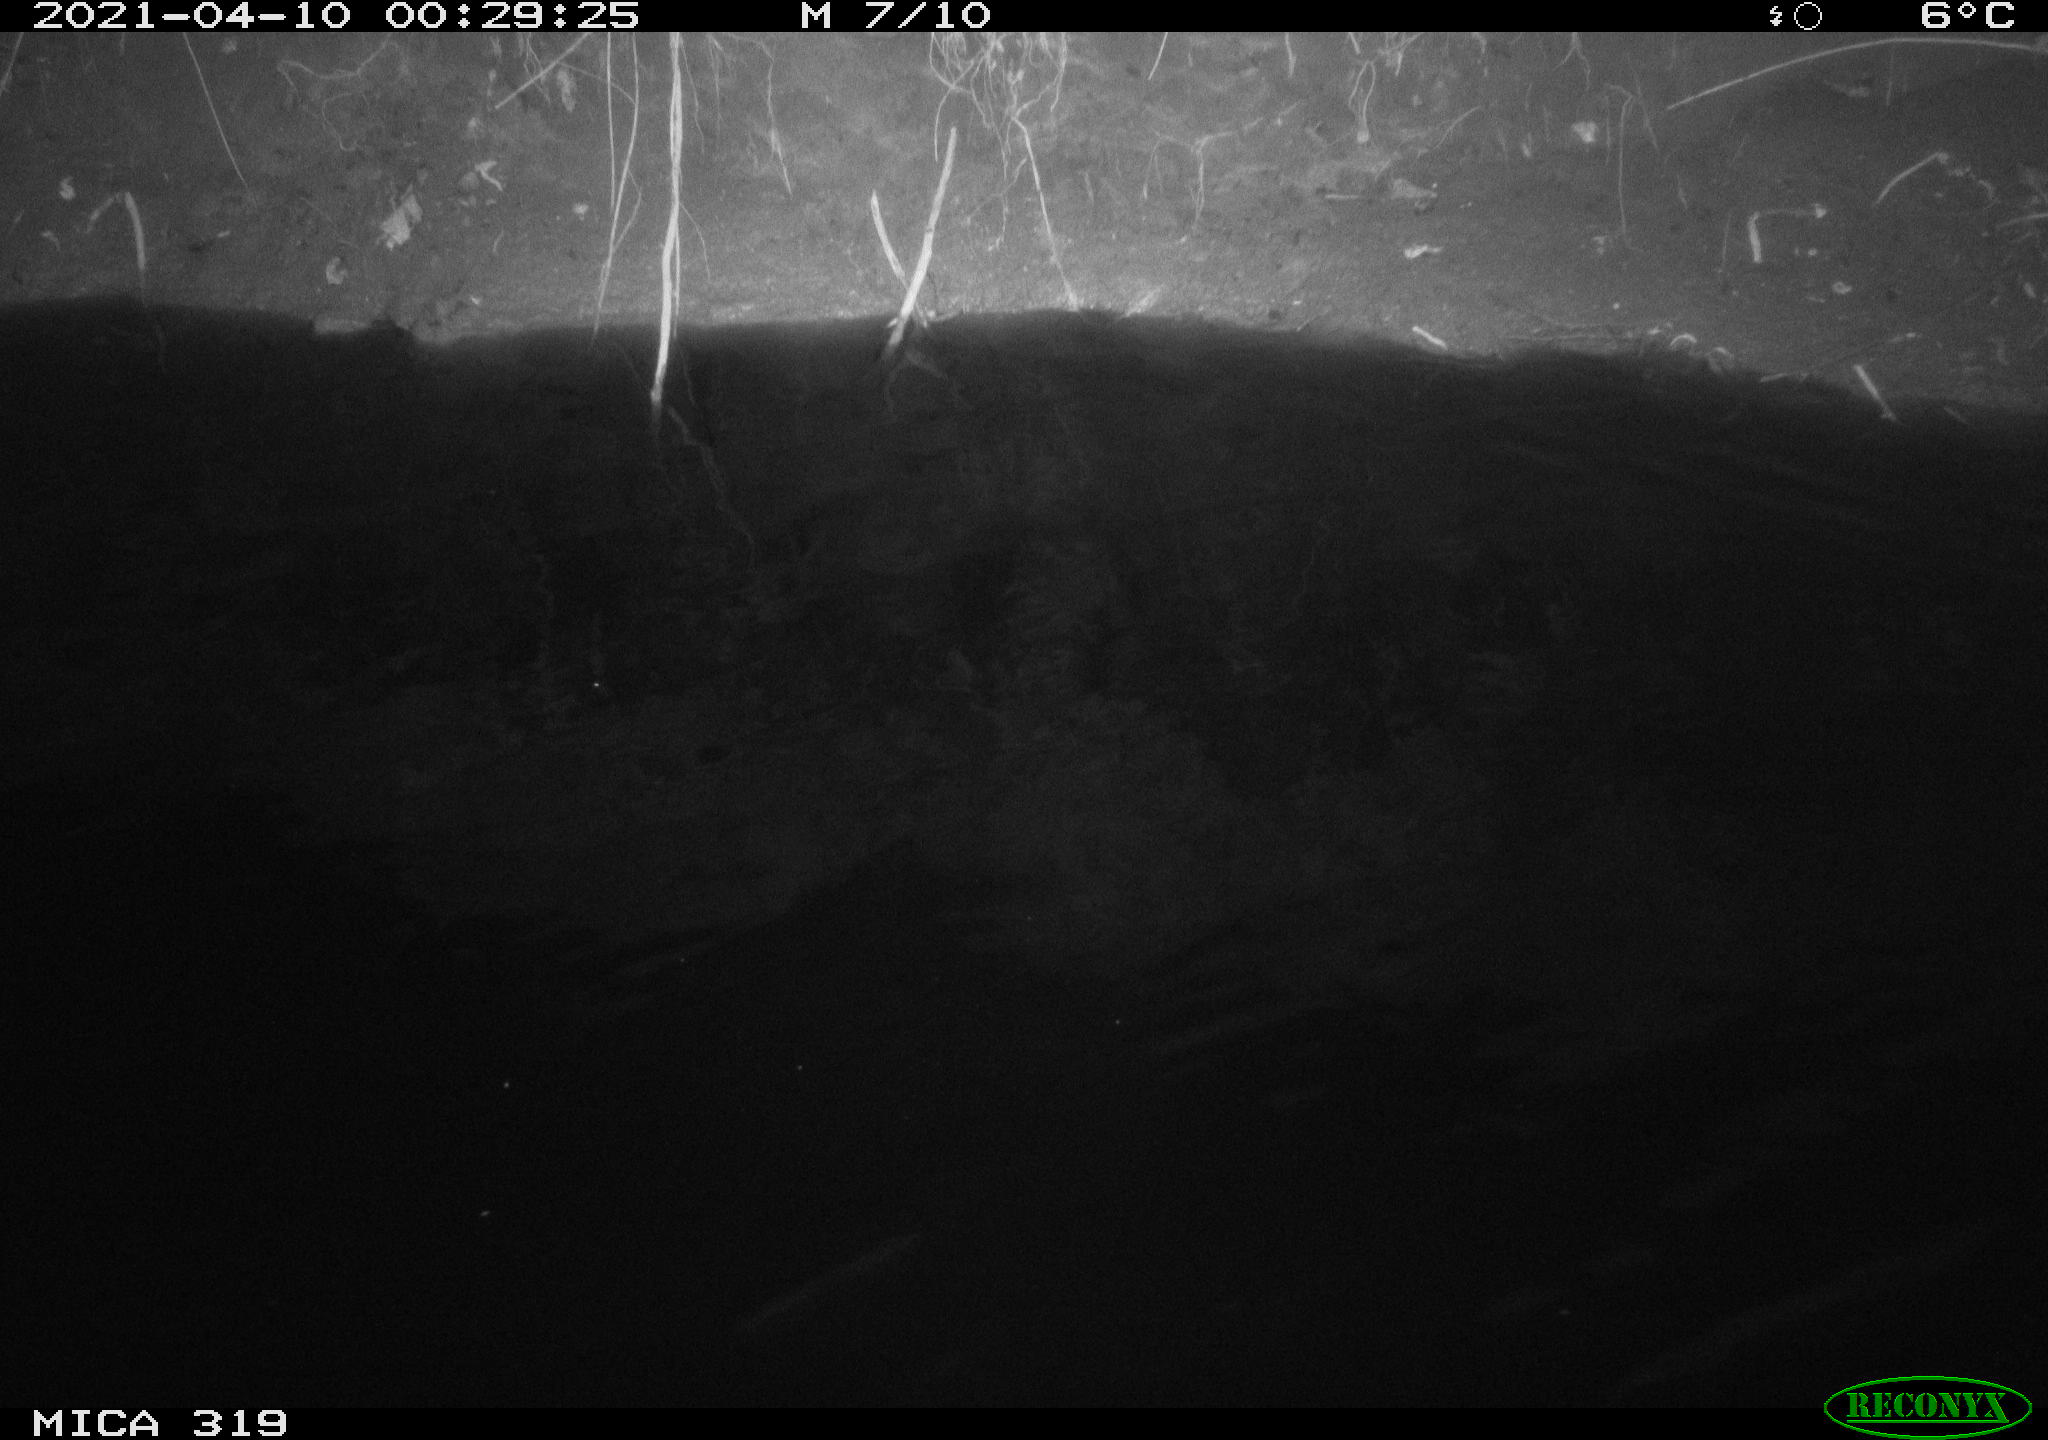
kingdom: Animalia
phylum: Chordata
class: Aves
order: Anseriformes
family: Anatidae
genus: Anas
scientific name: Anas platyrhynchos
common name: Mallard
